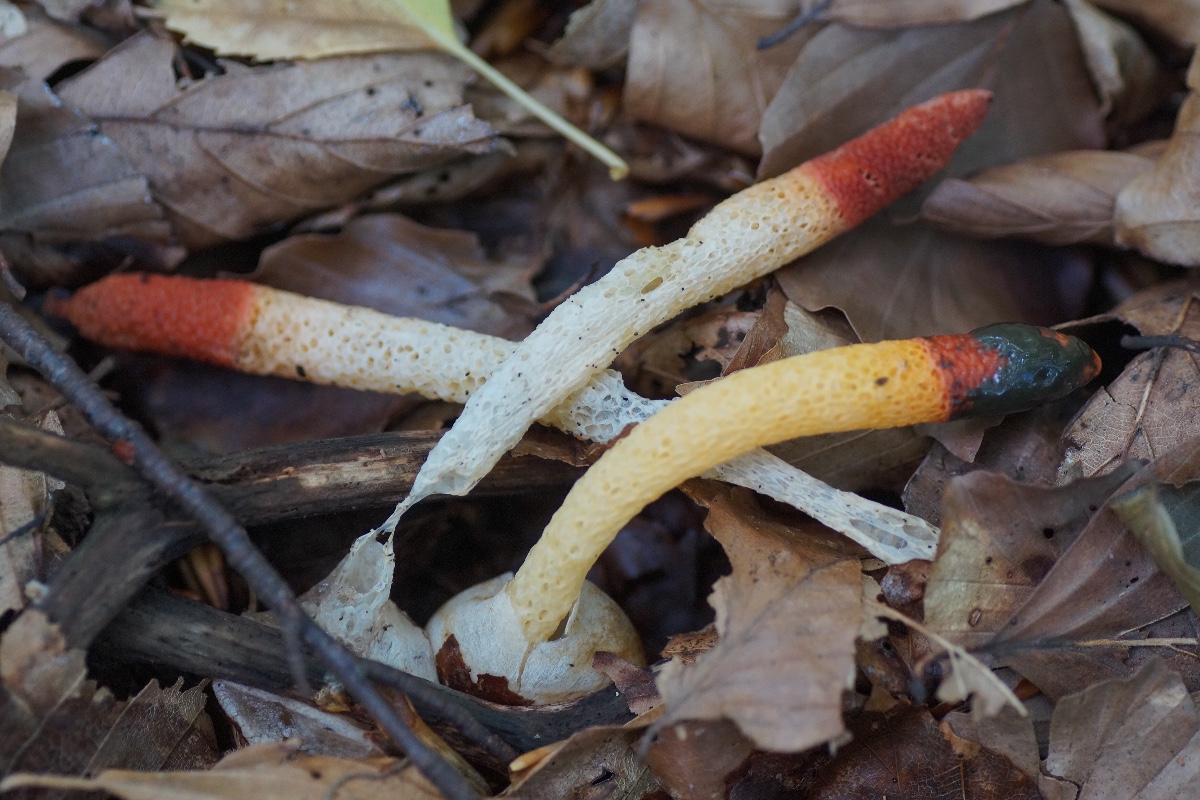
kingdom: Fungi
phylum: Basidiomycota
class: Agaricomycetes
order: Phallales
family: Phallaceae
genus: Mutinus
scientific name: Mutinus caninus
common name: hunde-stinksvamp
